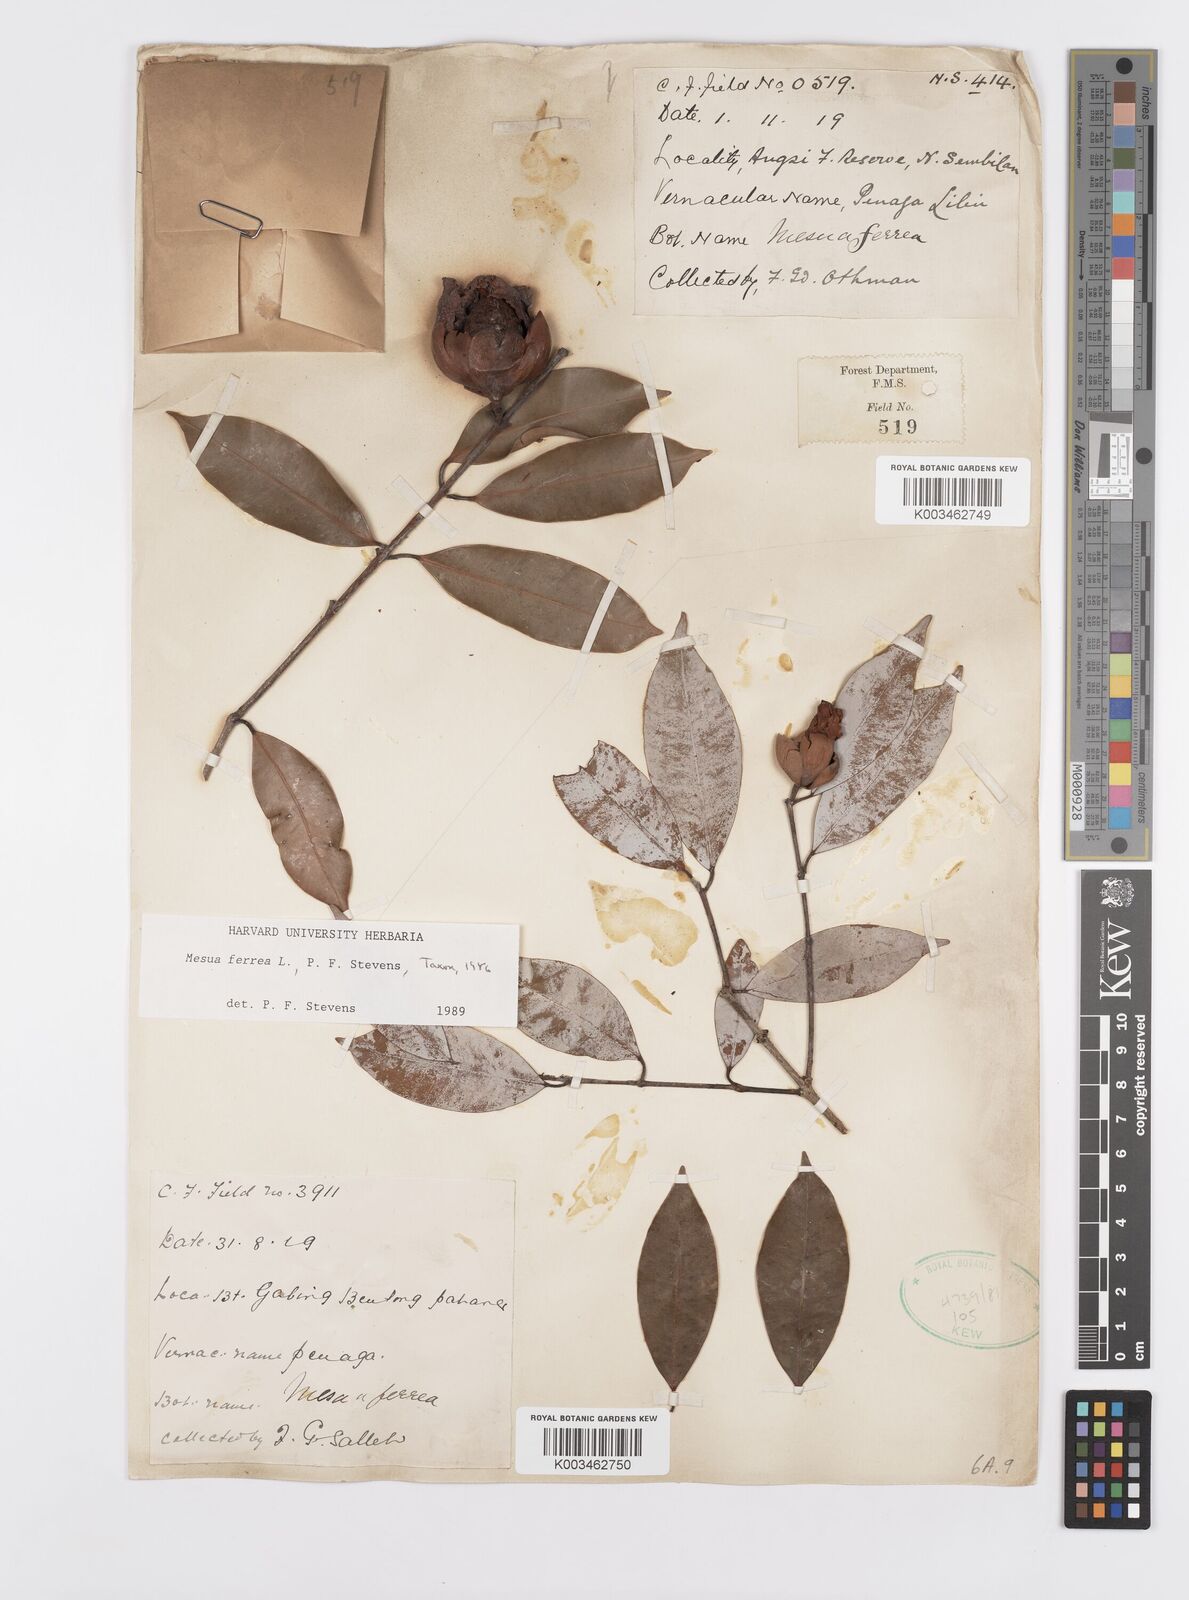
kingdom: Plantae
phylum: Tracheophyta
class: Magnoliopsida
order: Malpighiales
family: Calophyllaceae
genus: Mesua
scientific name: Mesua ferrea
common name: Mesua
